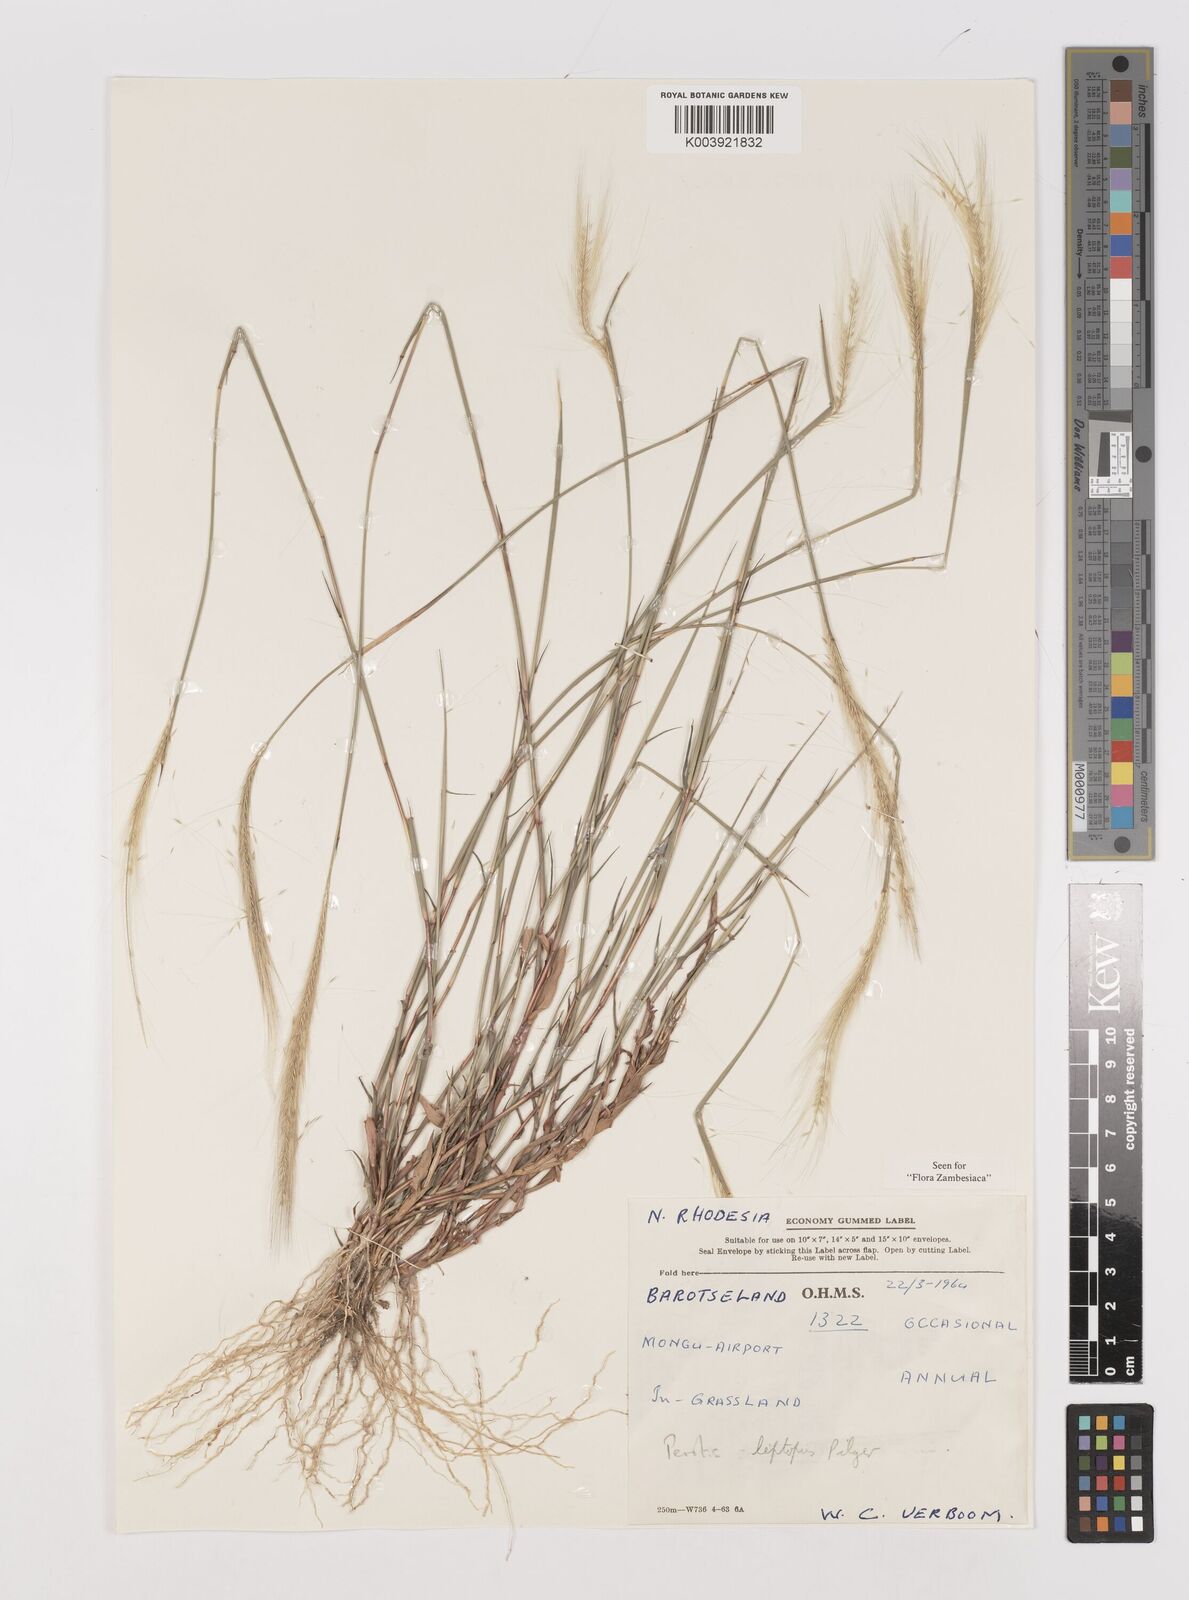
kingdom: Plantae
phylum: Tracheophyta
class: Liliopsida
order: Poales
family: Poaceae
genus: Perotis
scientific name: Perotis leptopus
